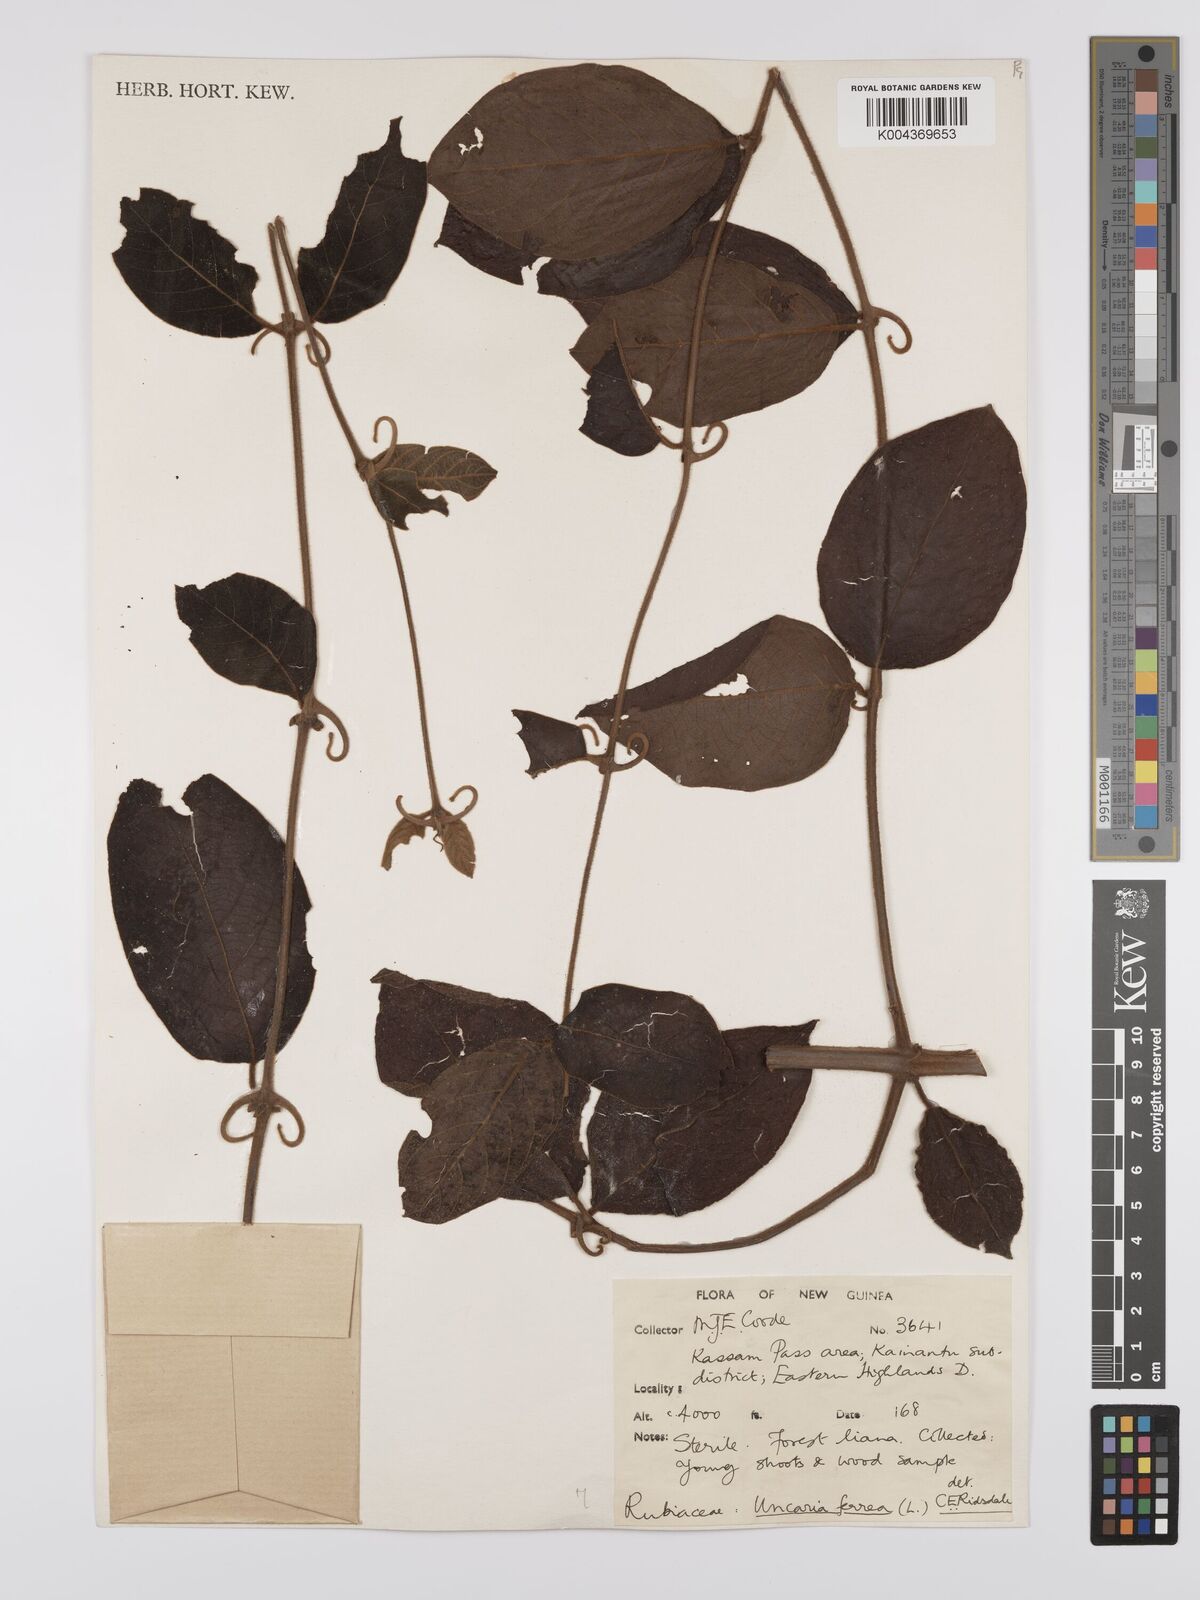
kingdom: Plantae
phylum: Tracheophyta
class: Magnoliopsida
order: Gentianales
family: Rubiaceae
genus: Uncaria
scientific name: Uncaria lanosa
